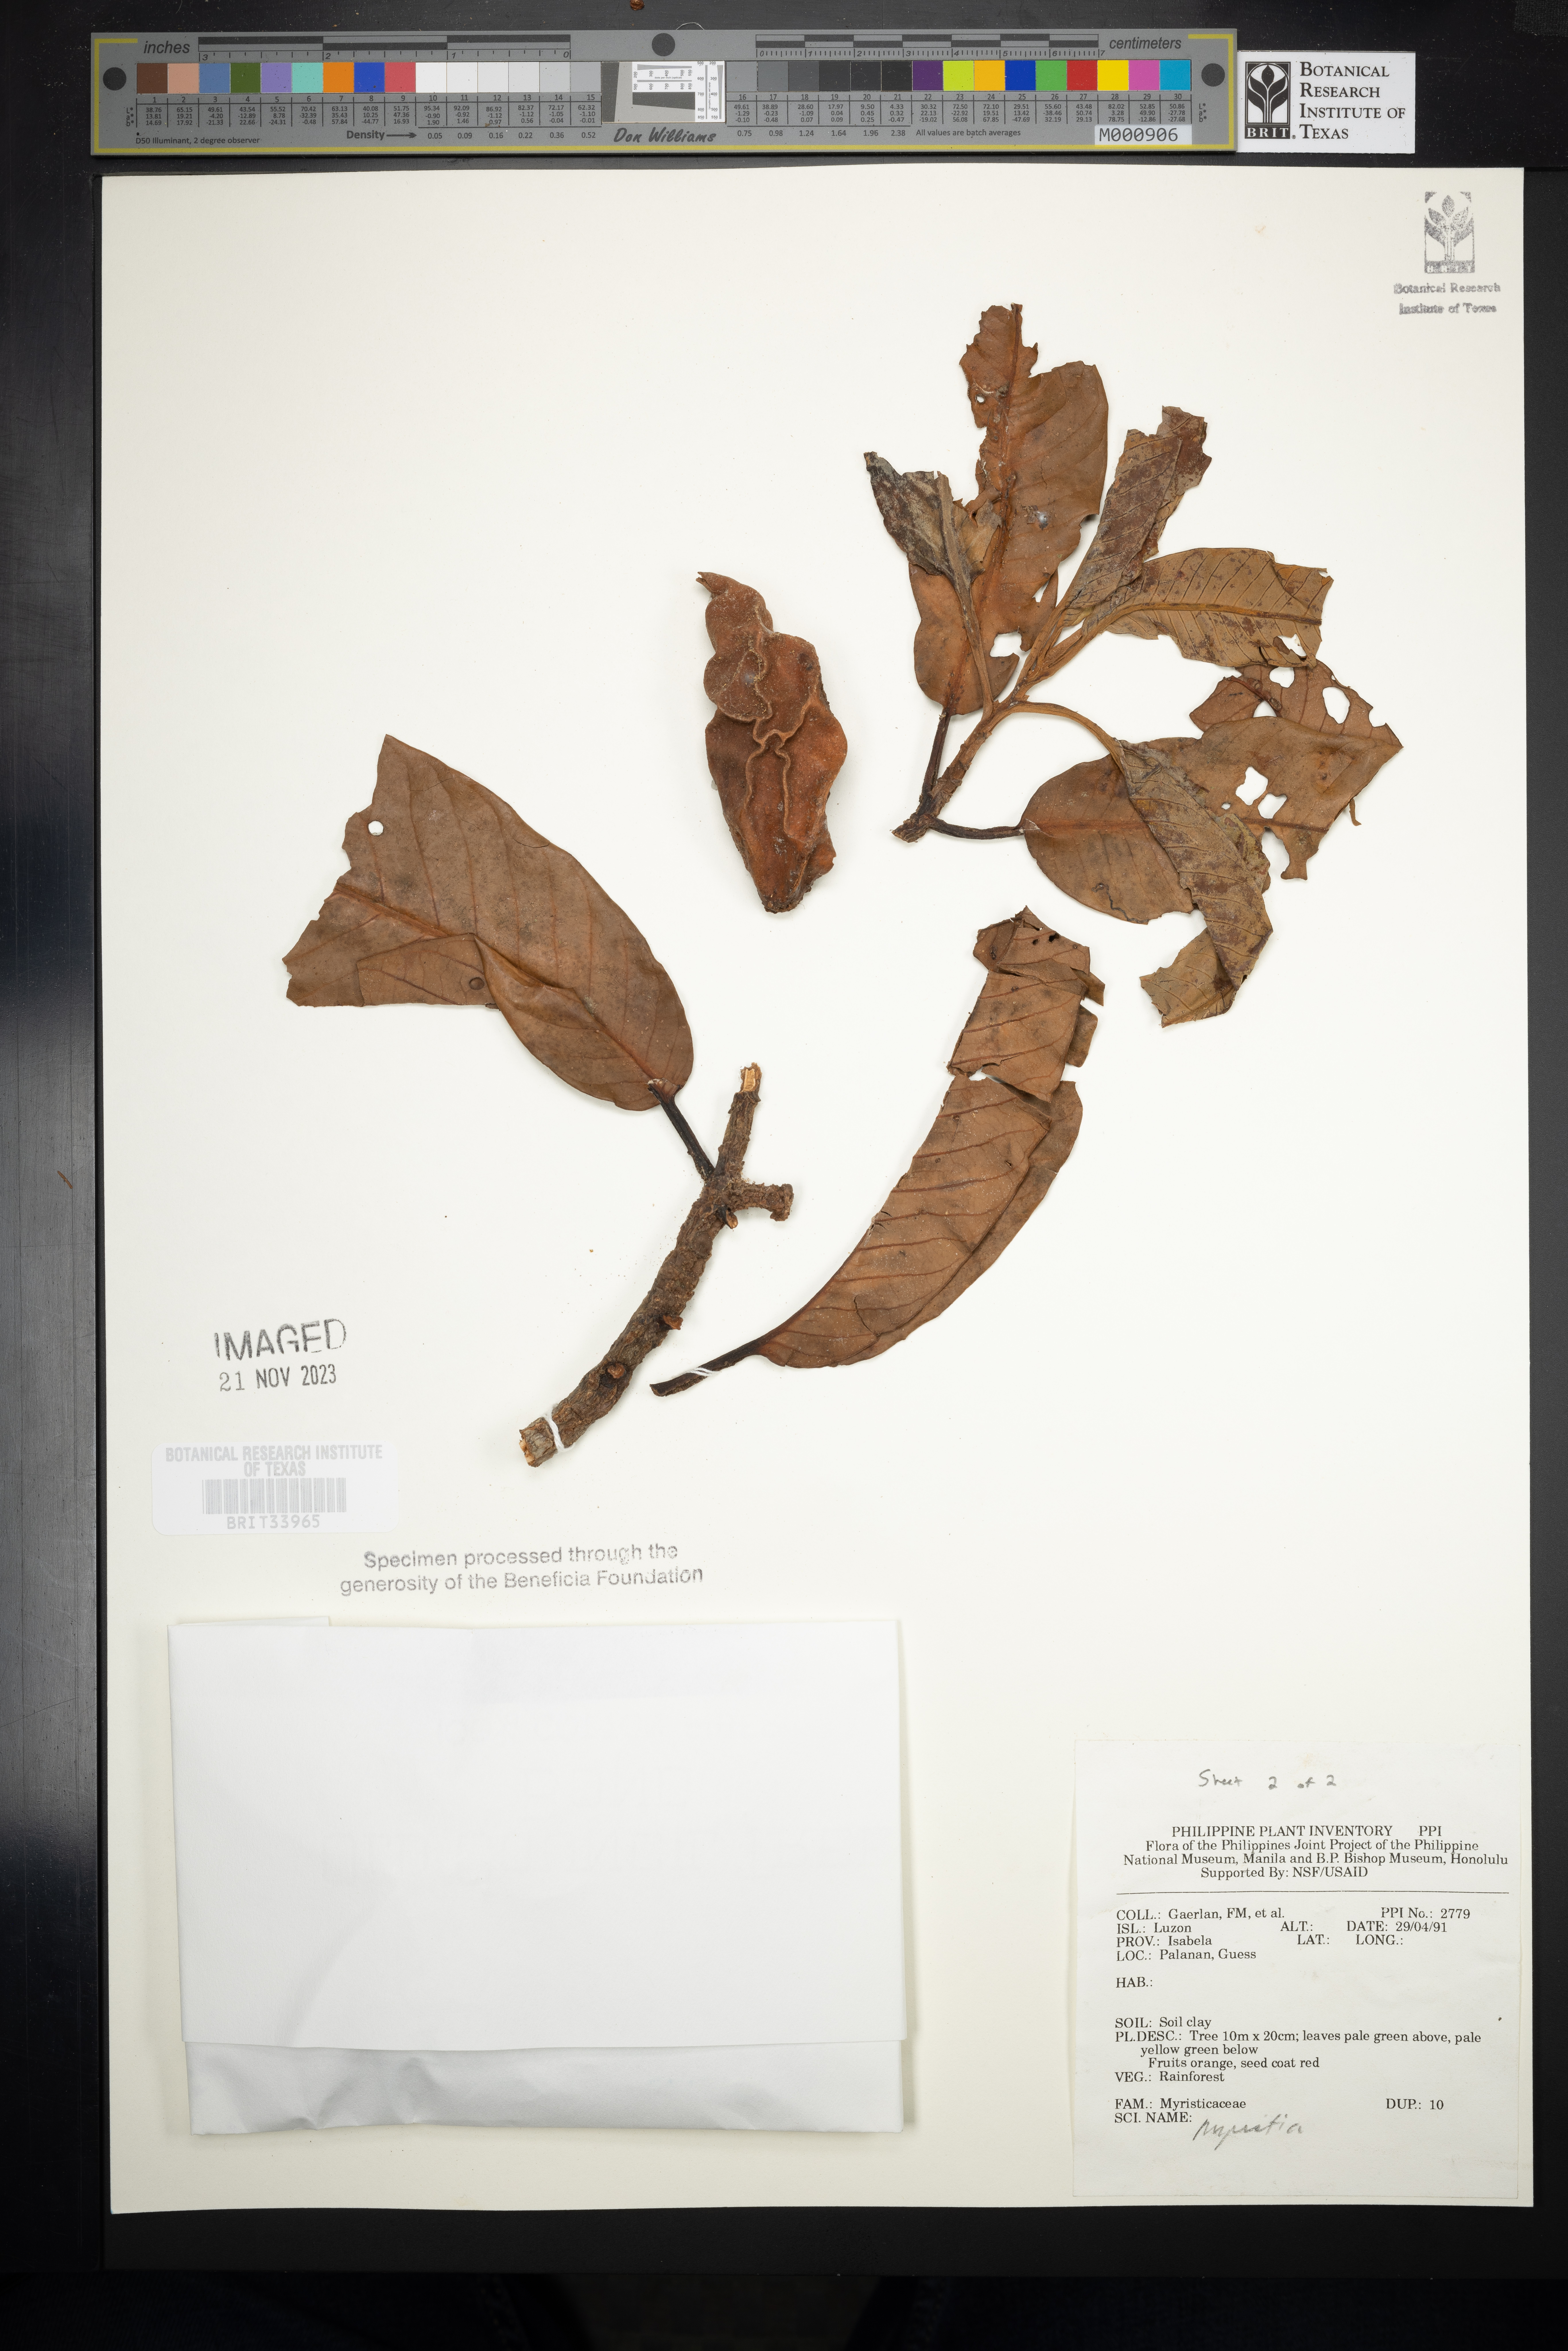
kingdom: Plantae
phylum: Tracheophyta
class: Magnoliopsida
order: Magnoliales
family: Myristicaceae
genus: Myristica
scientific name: Myristica
